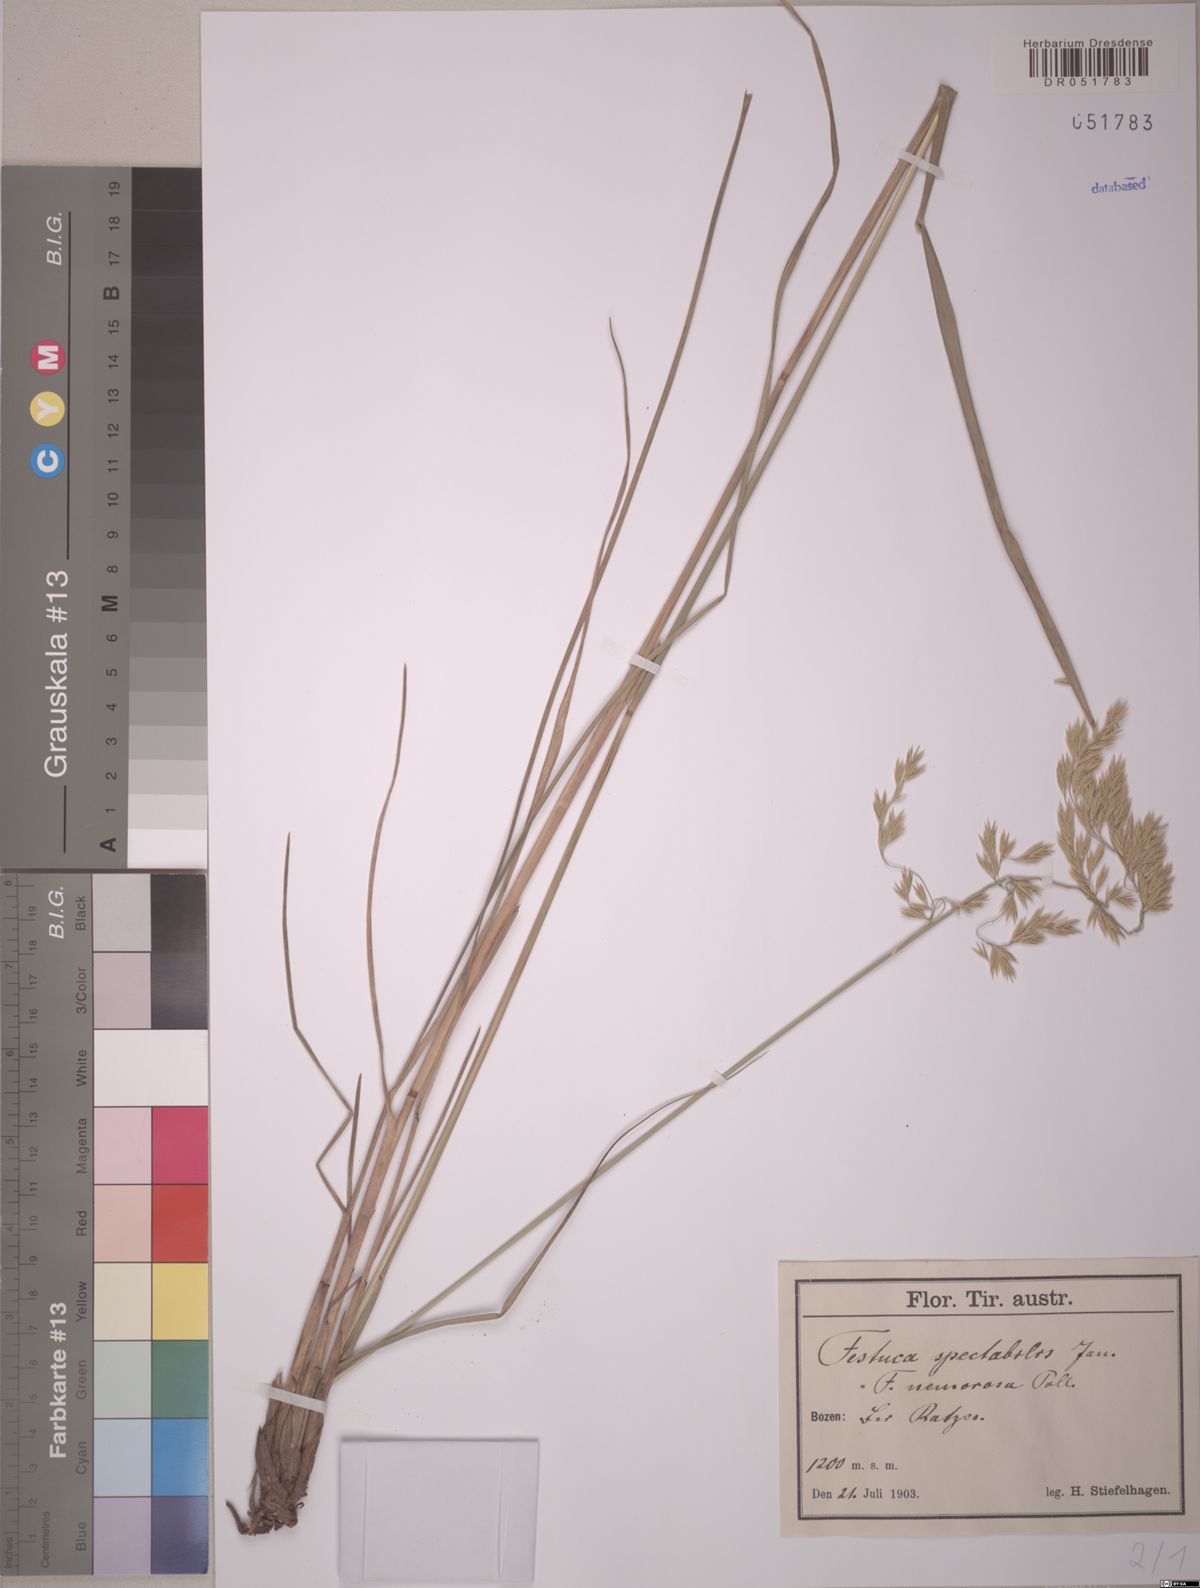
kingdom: Plantae
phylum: Tracheophyta
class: Liliopsida
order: Poales
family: Poaceae
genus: Festuca
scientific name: Festuca spectabilis
